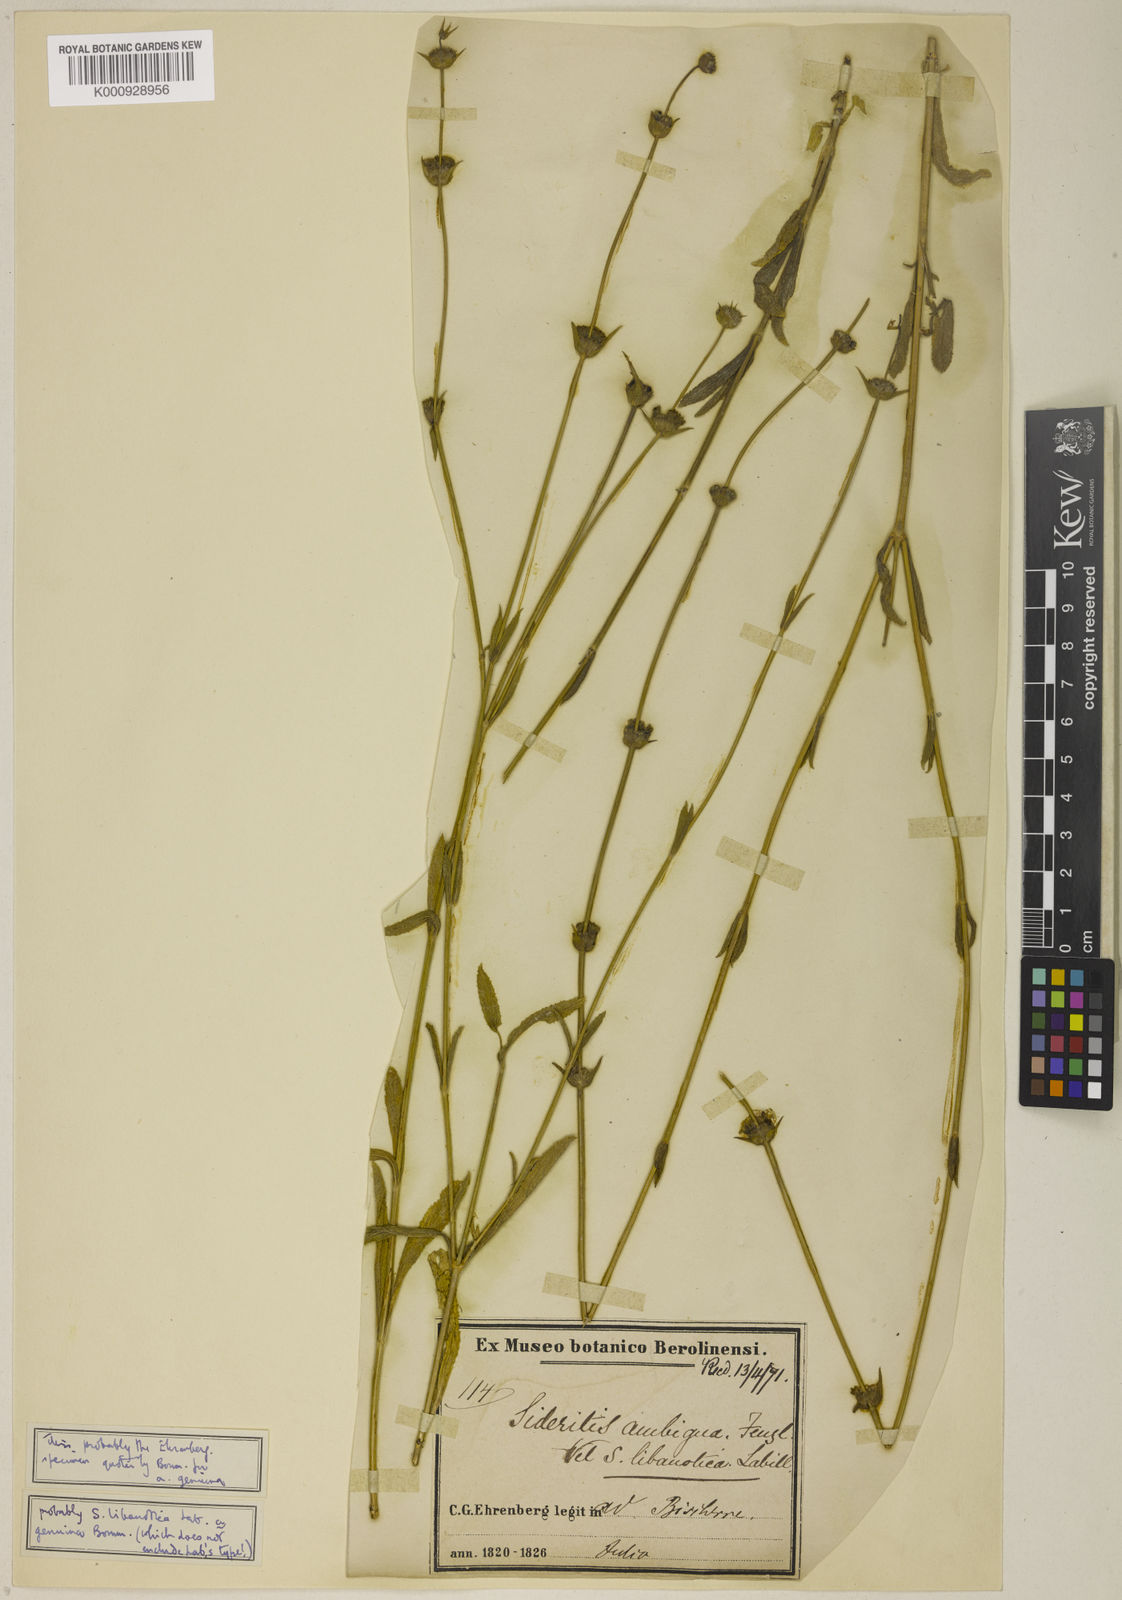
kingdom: Plantae
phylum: Tracheophyta
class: Magnoliopsida
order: Lamiales
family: Lamiaceae
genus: Sideritis
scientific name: Sideritis libanotica
